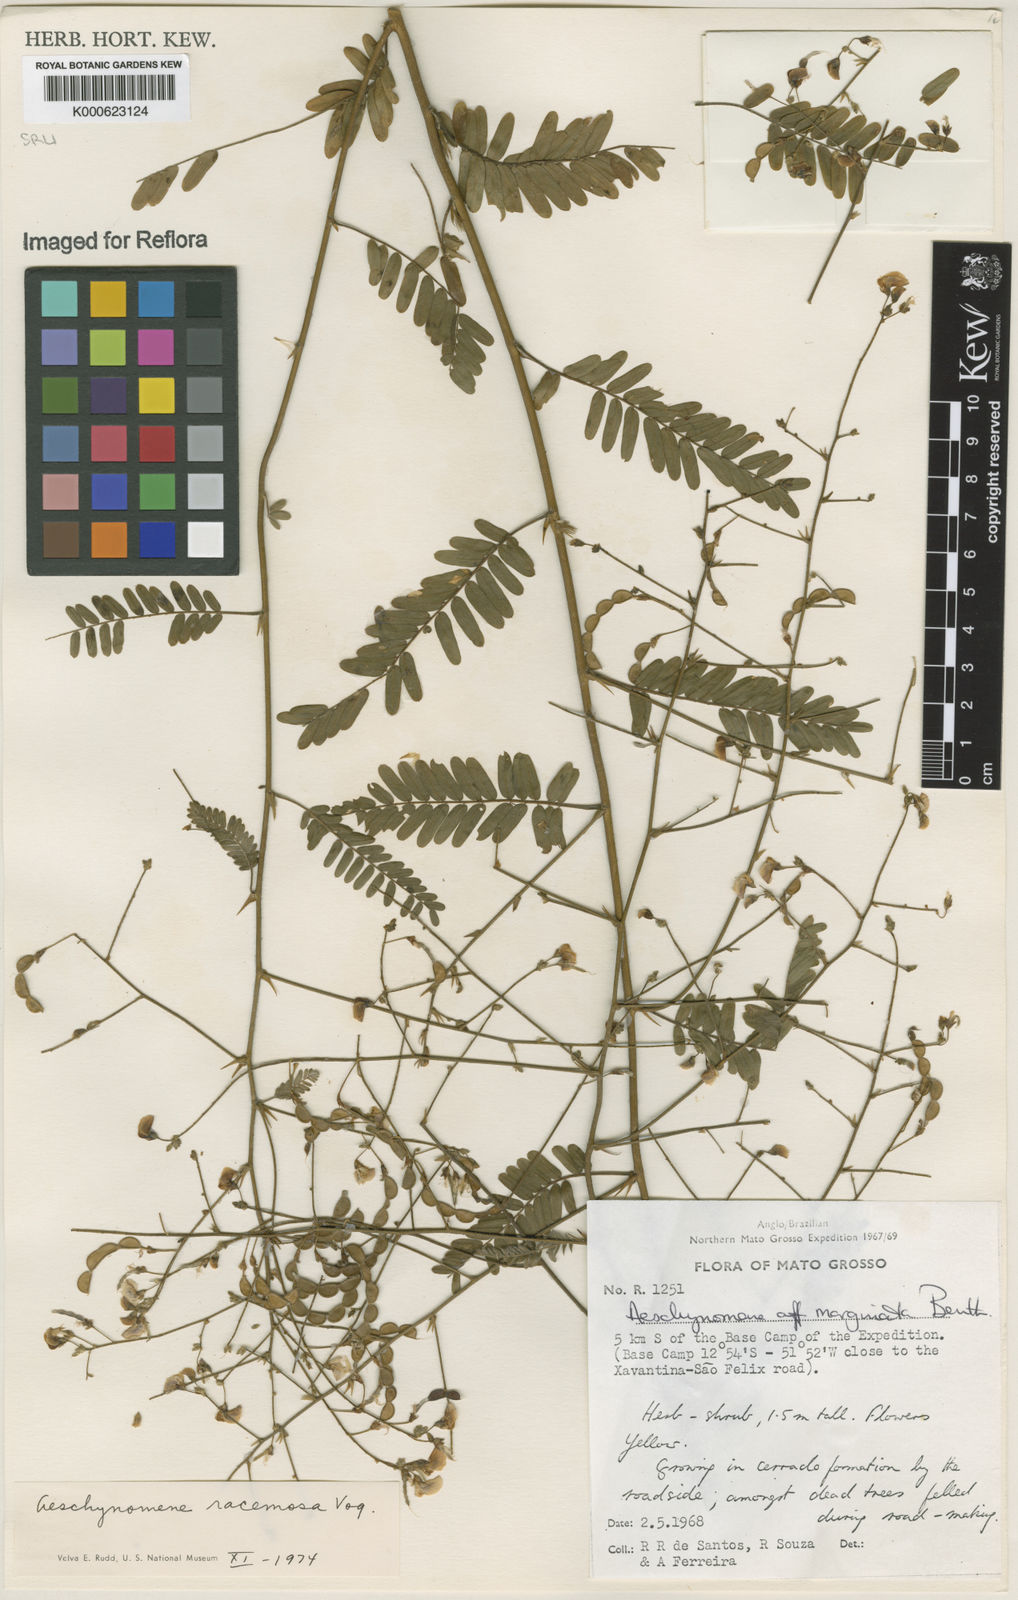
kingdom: Plantae
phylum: Tracheophyta
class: Magnoliopsida
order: Fabales
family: Fabaceae
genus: Ctenodon
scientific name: Ctenodon racemosus
